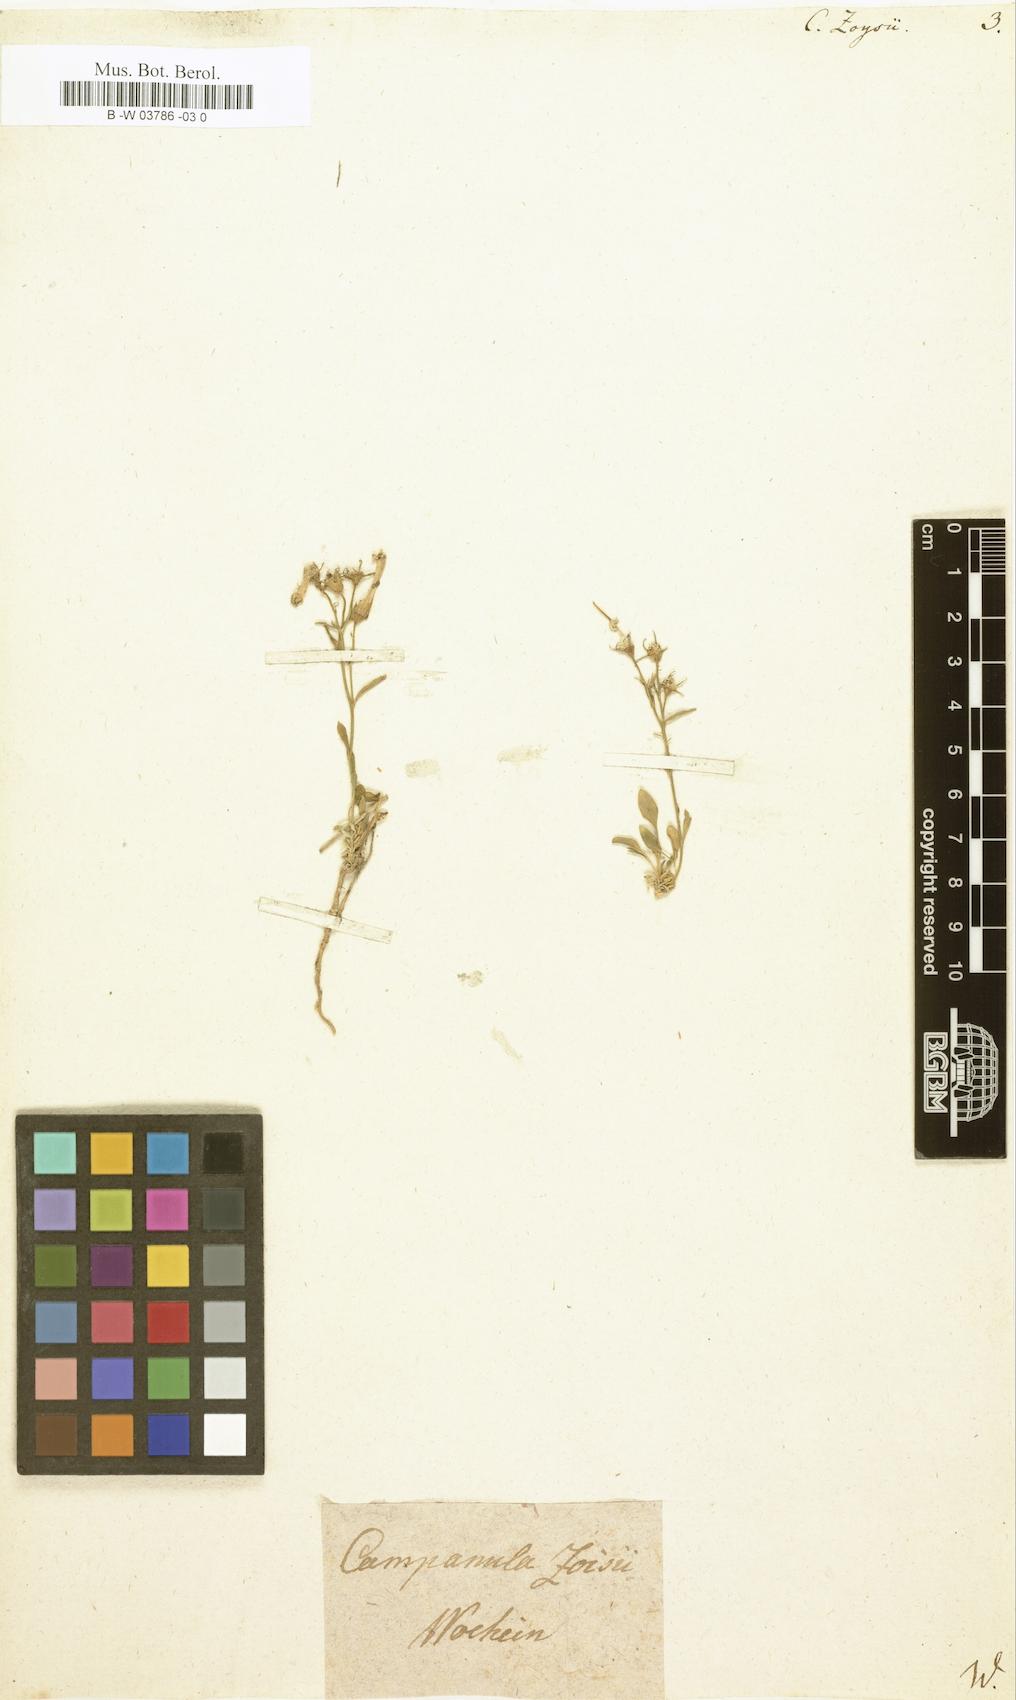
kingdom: Plantae
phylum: Tracheophyta
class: Magnoliopsida
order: Asterales
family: Campanulaceae
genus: Favratia
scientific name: Favratia zoysii
